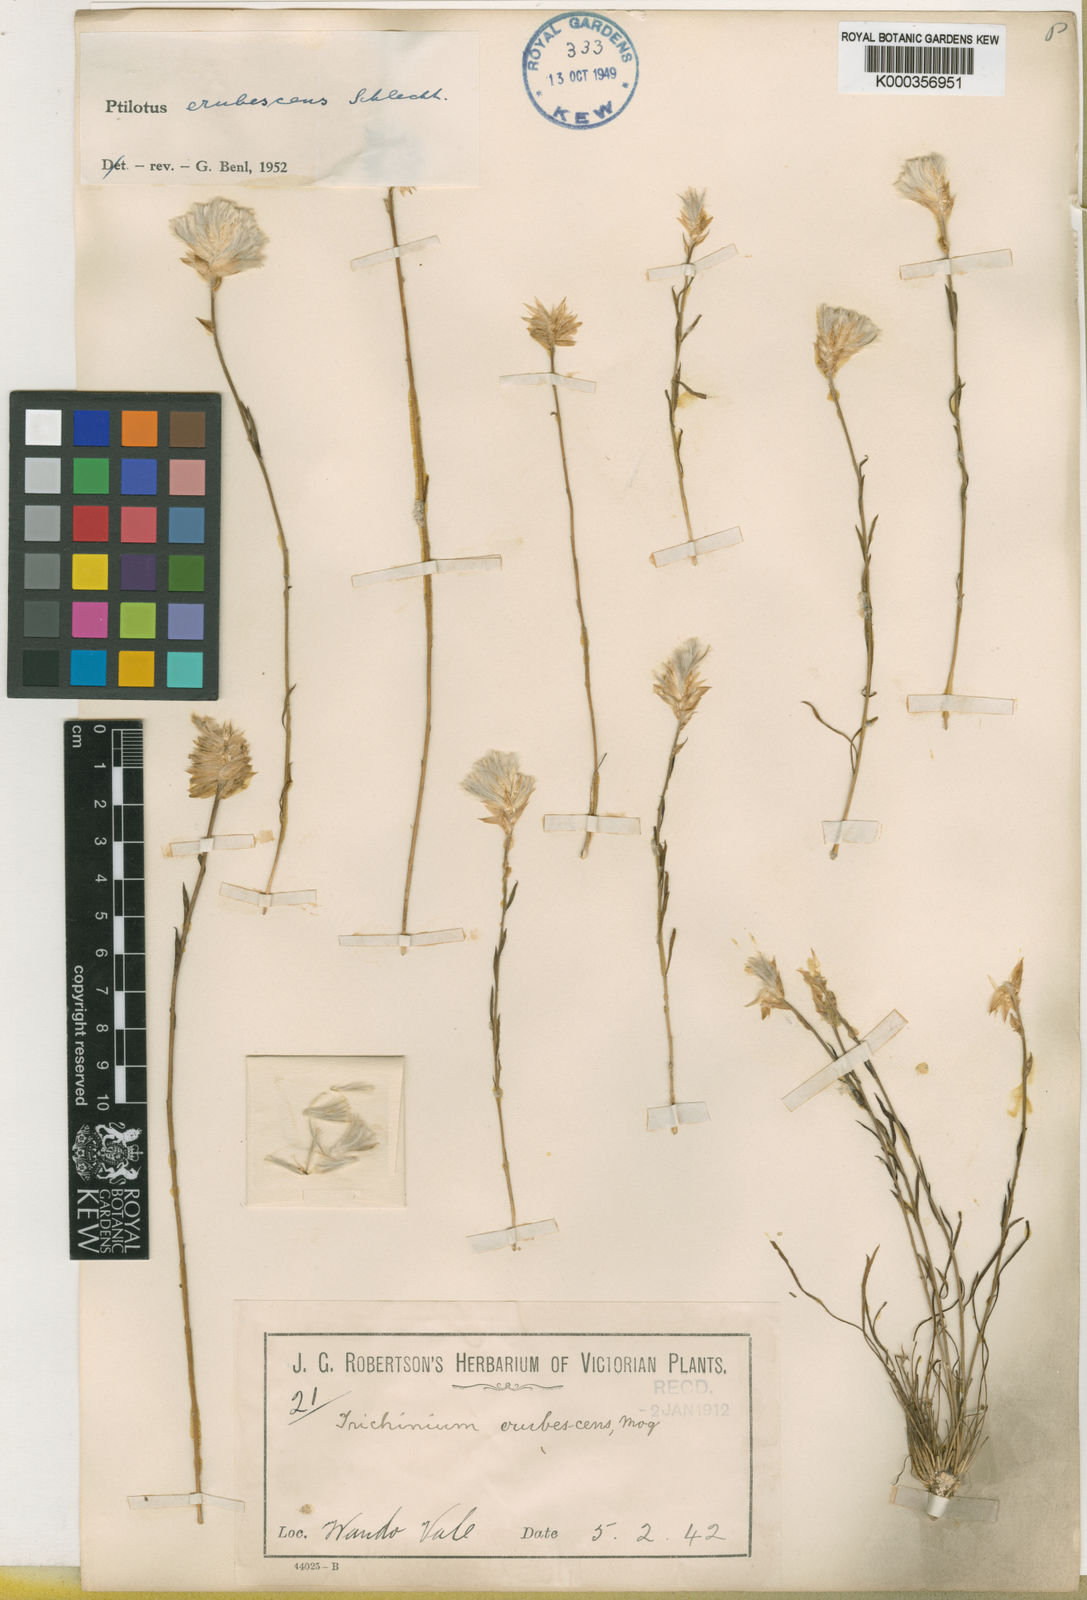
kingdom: Plantae
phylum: Tracheophyta
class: Magnoliopsida
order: Caryophyllales
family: Amaranthaceae
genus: Ptilotus
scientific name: Ptilotus erubescens
